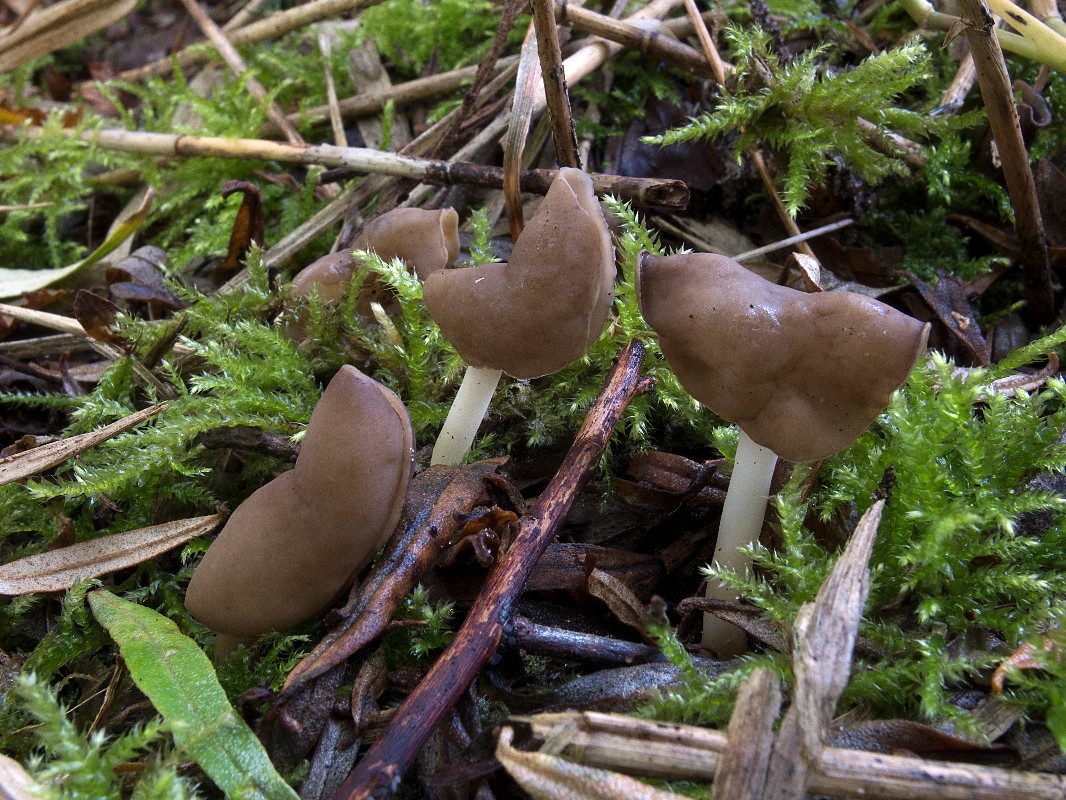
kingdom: Fungi
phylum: Ascomycota
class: Pezizomycetes
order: Pezizales
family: Helvellaceae
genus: Helvella
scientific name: Helvella bicolor
